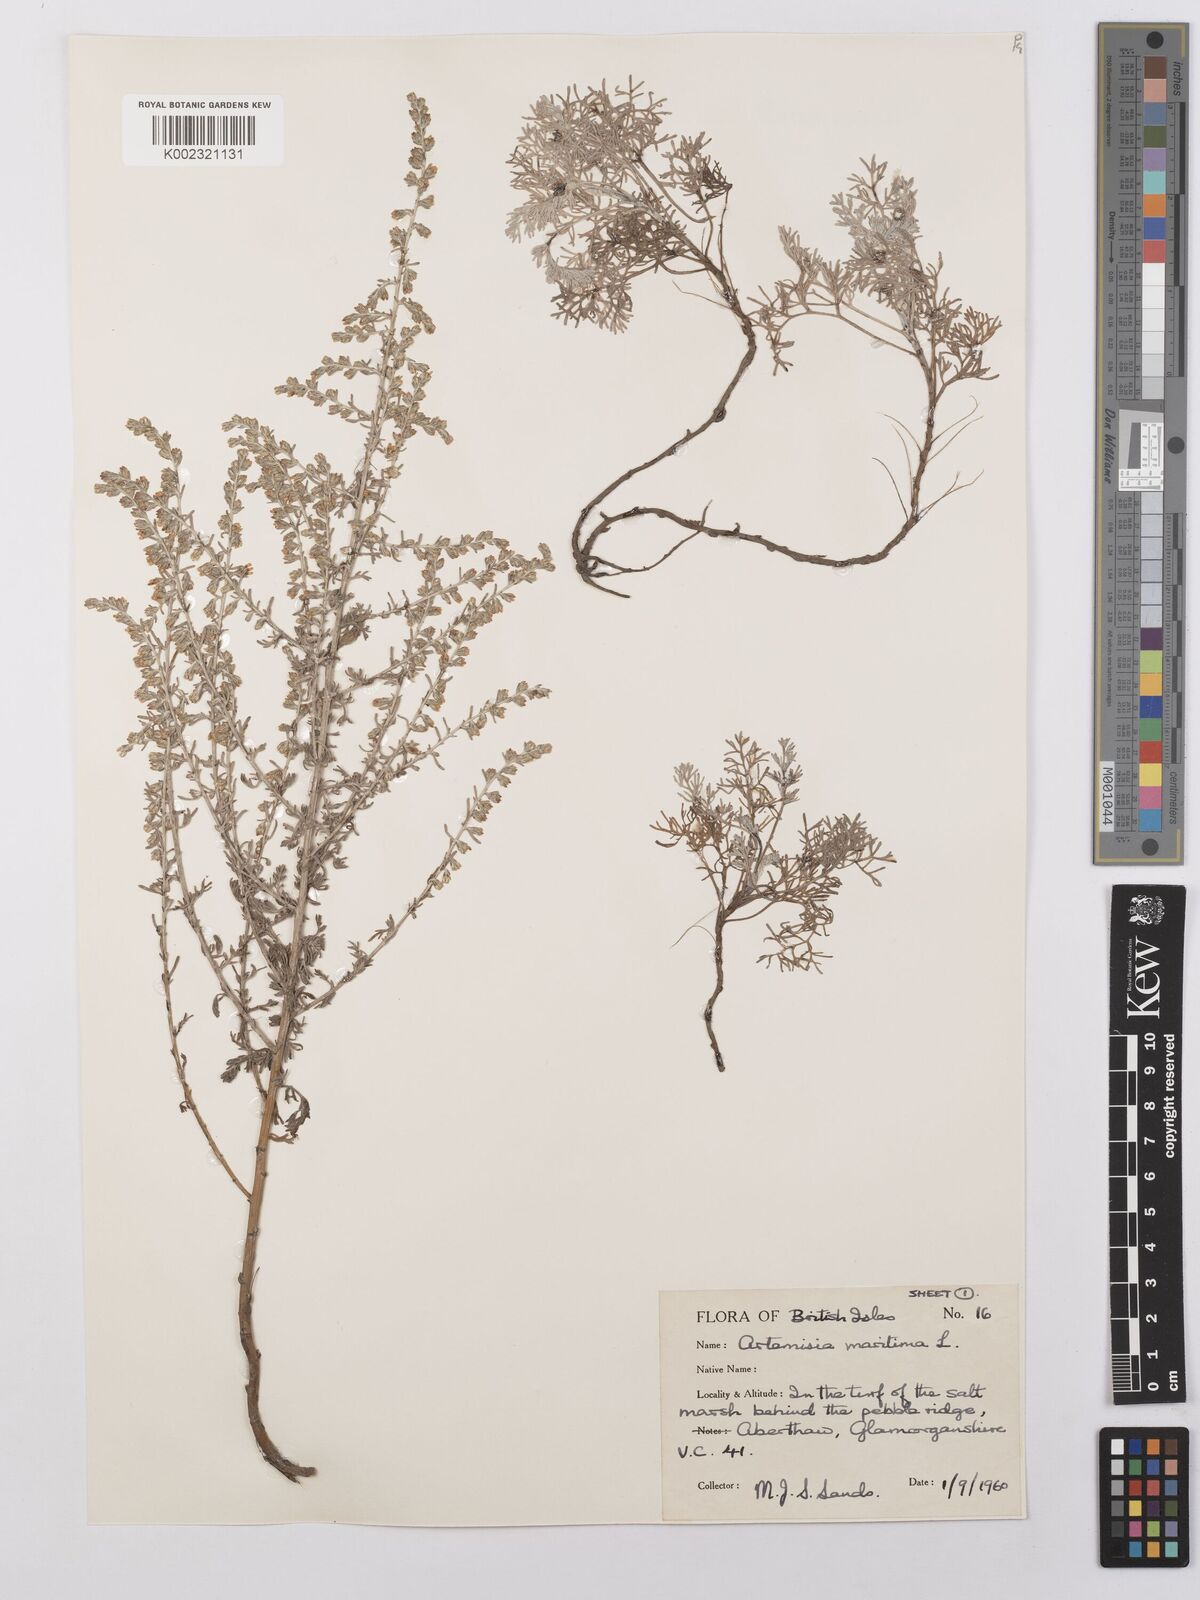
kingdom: Plantae
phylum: Tracheophyta
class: Magnoliopsida
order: Asterales
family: Asteraceae
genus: Artemisia
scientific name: Artemisia maritima
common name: Wormseed
